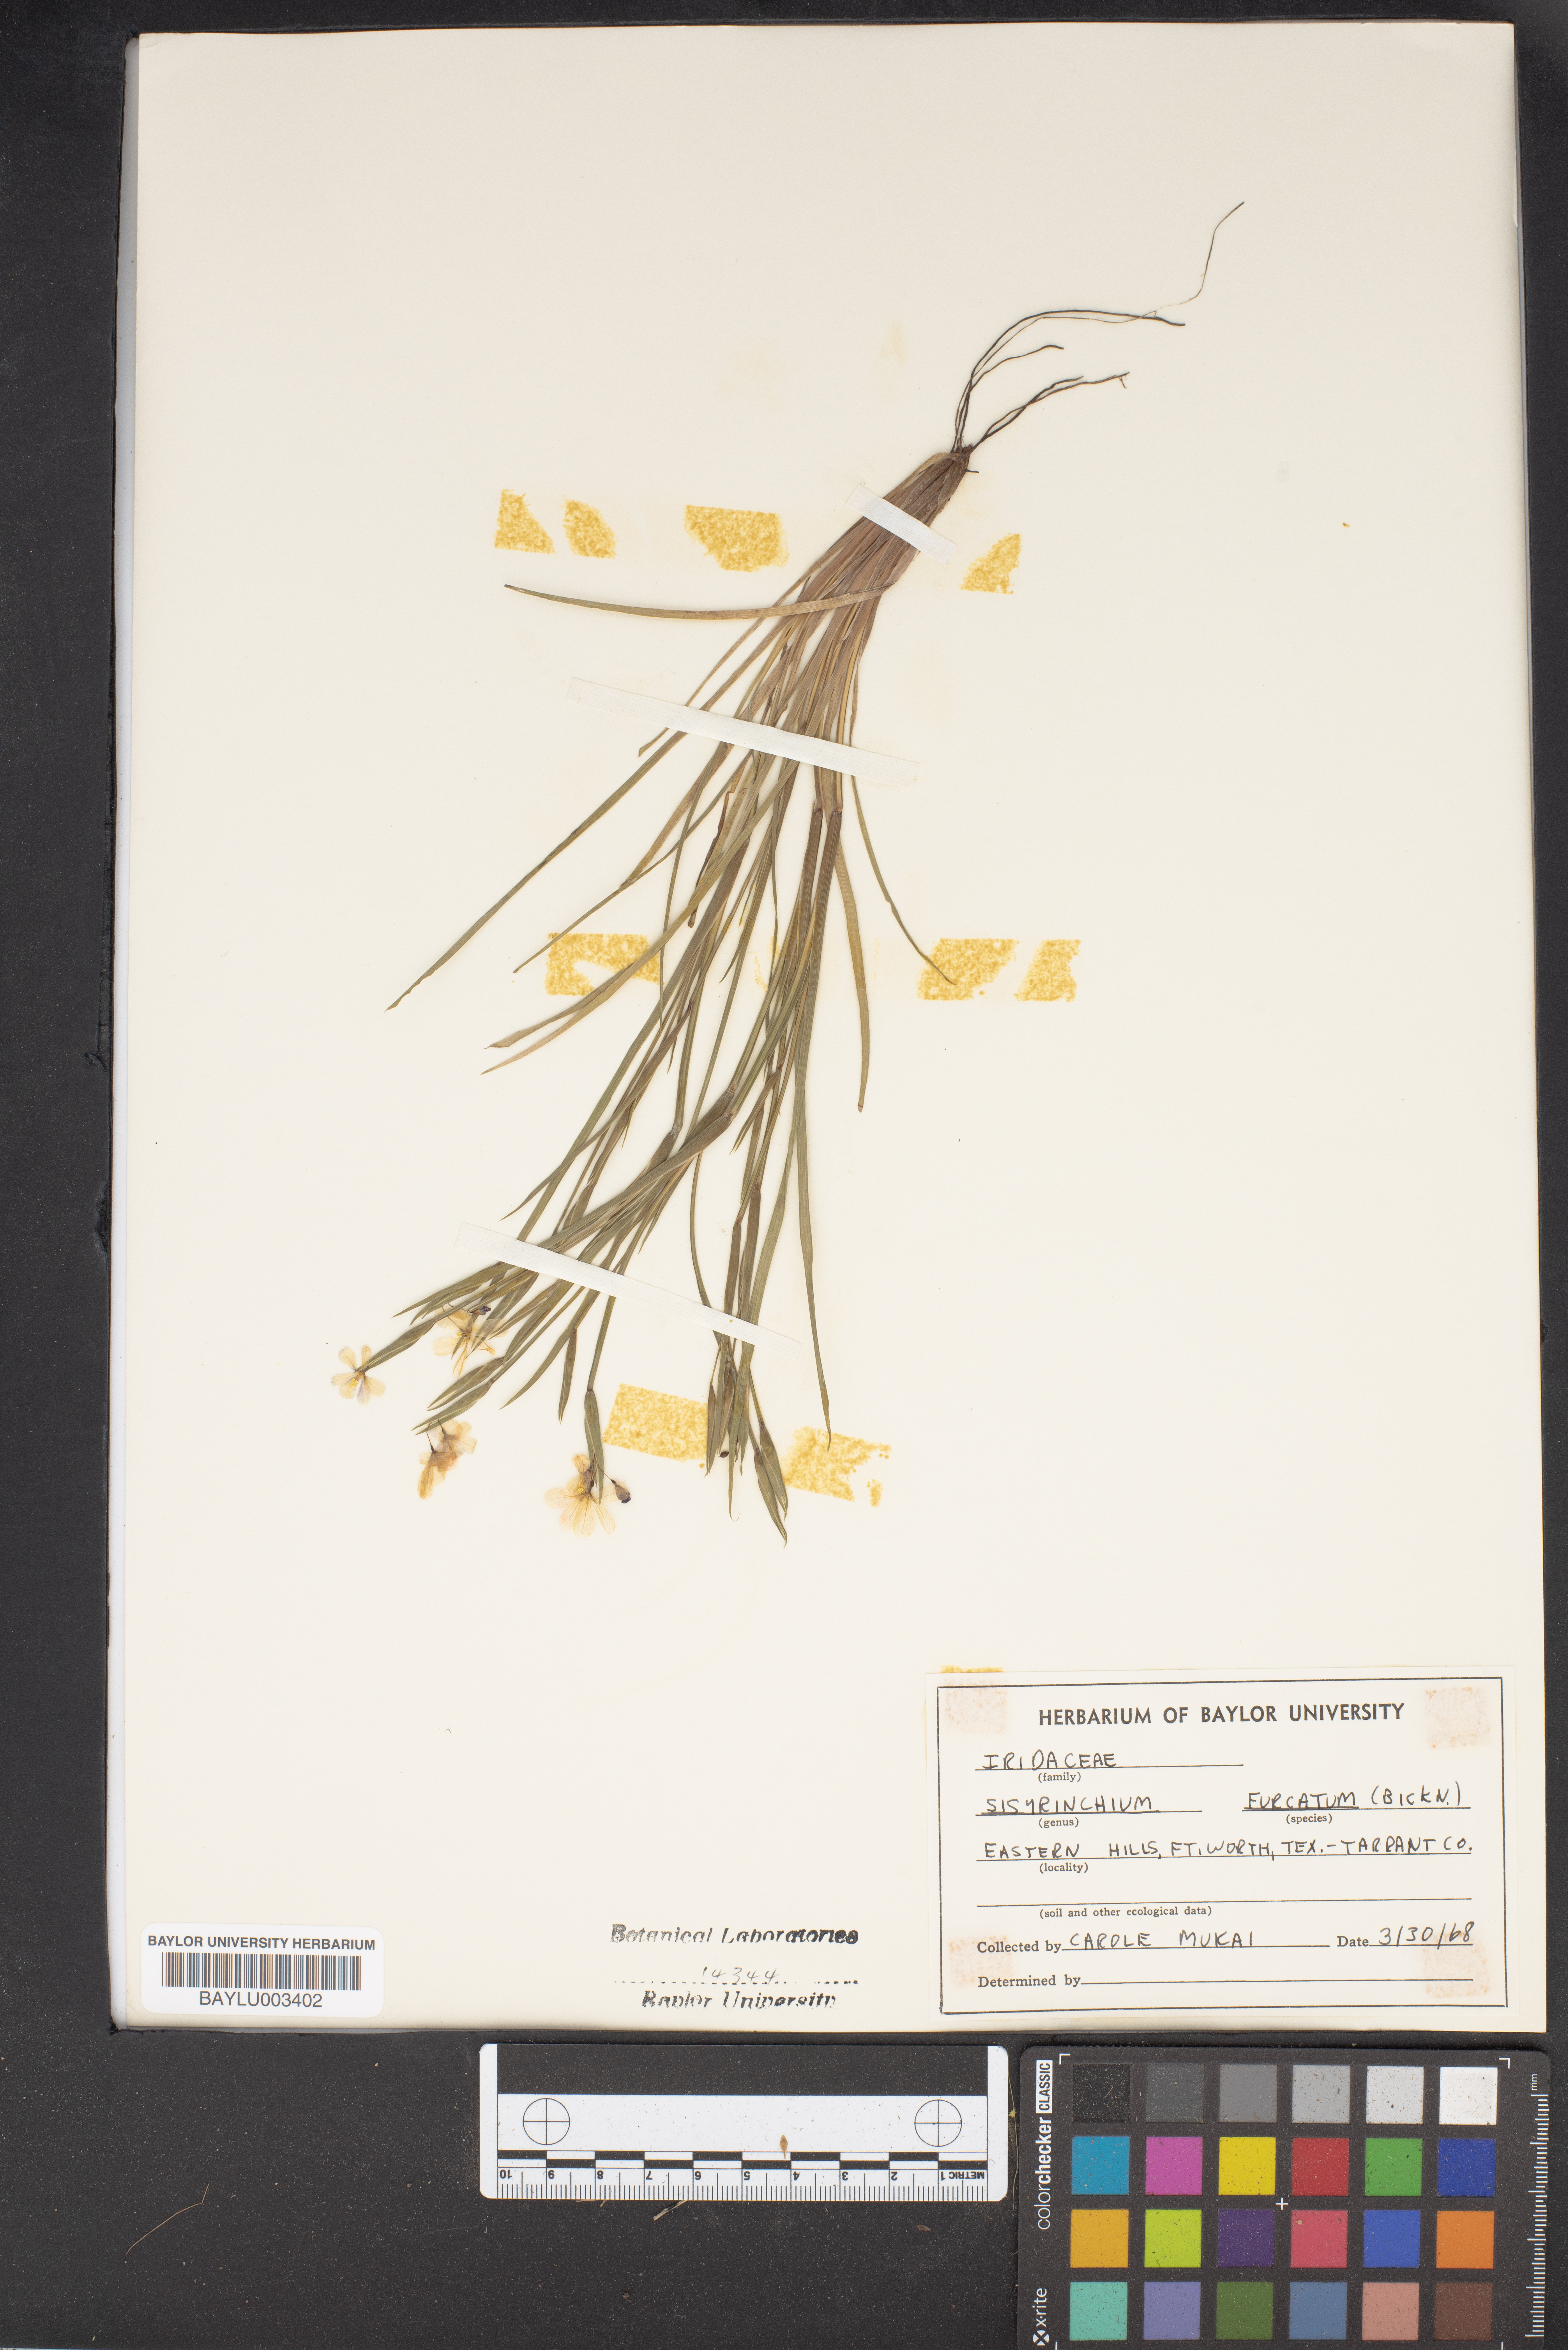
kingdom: Plantae
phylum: Tracheophyta
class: Liliopsida
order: Asparagales
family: Iridaceae
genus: Sisyrinchium
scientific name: Sisyrinchium fuscatum
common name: Coastal plain blue-eyed-grass
